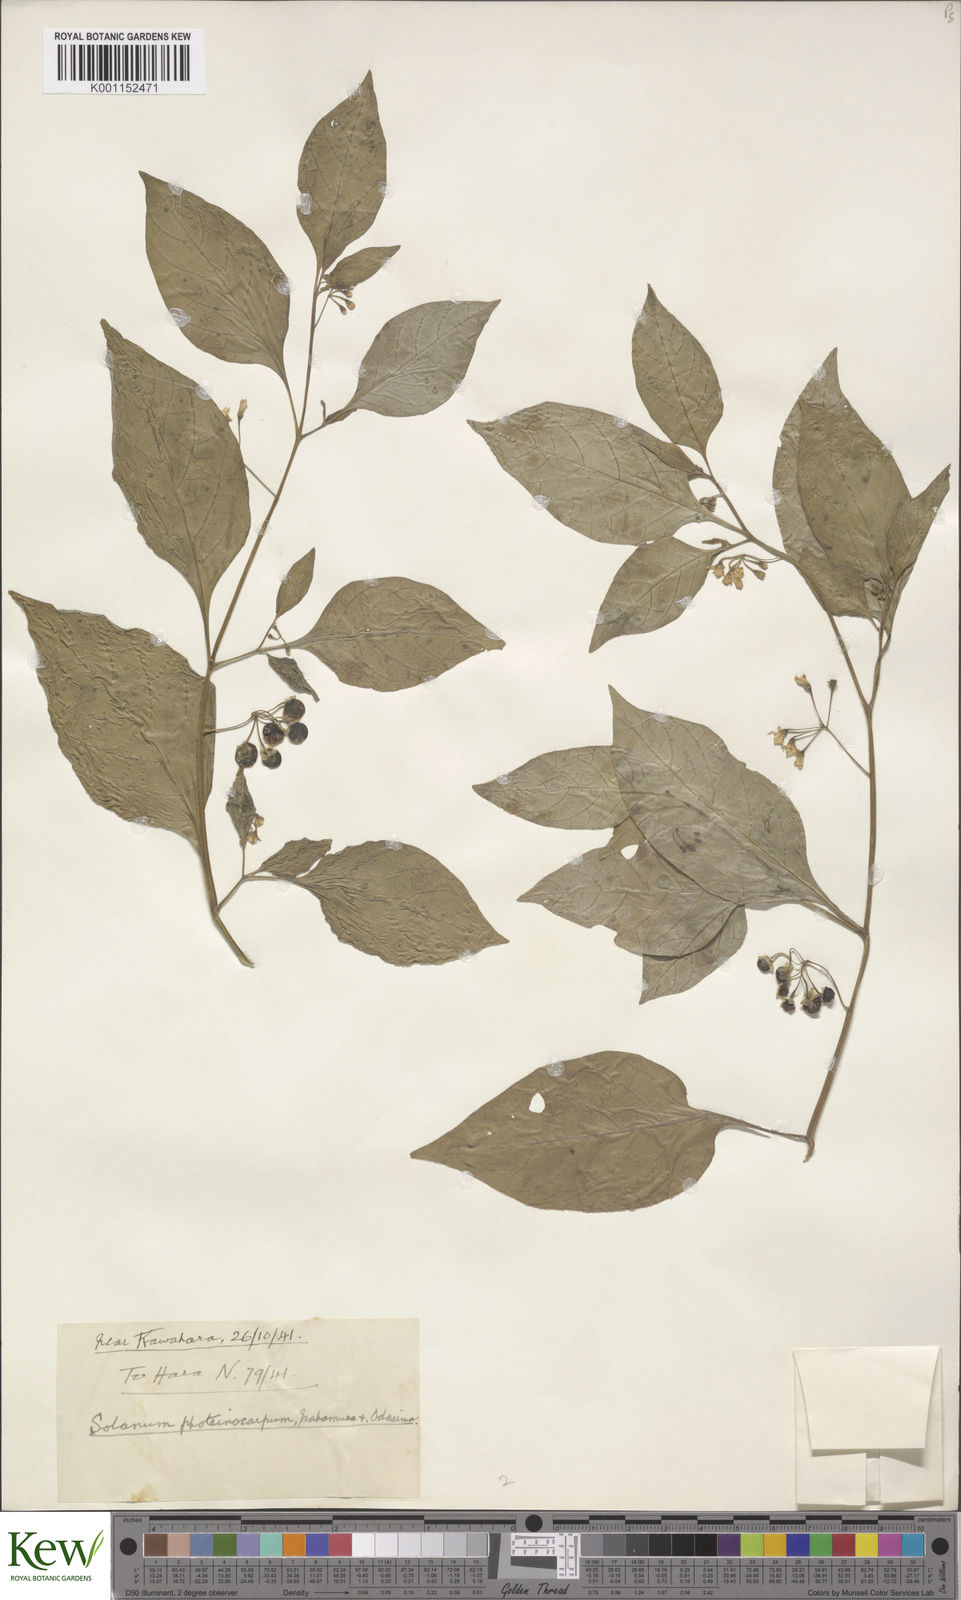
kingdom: Plantae
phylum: Tracheophyta
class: Magnoliopsida
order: Solanales
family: Solanaceae
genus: Solanum
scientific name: Solanum
